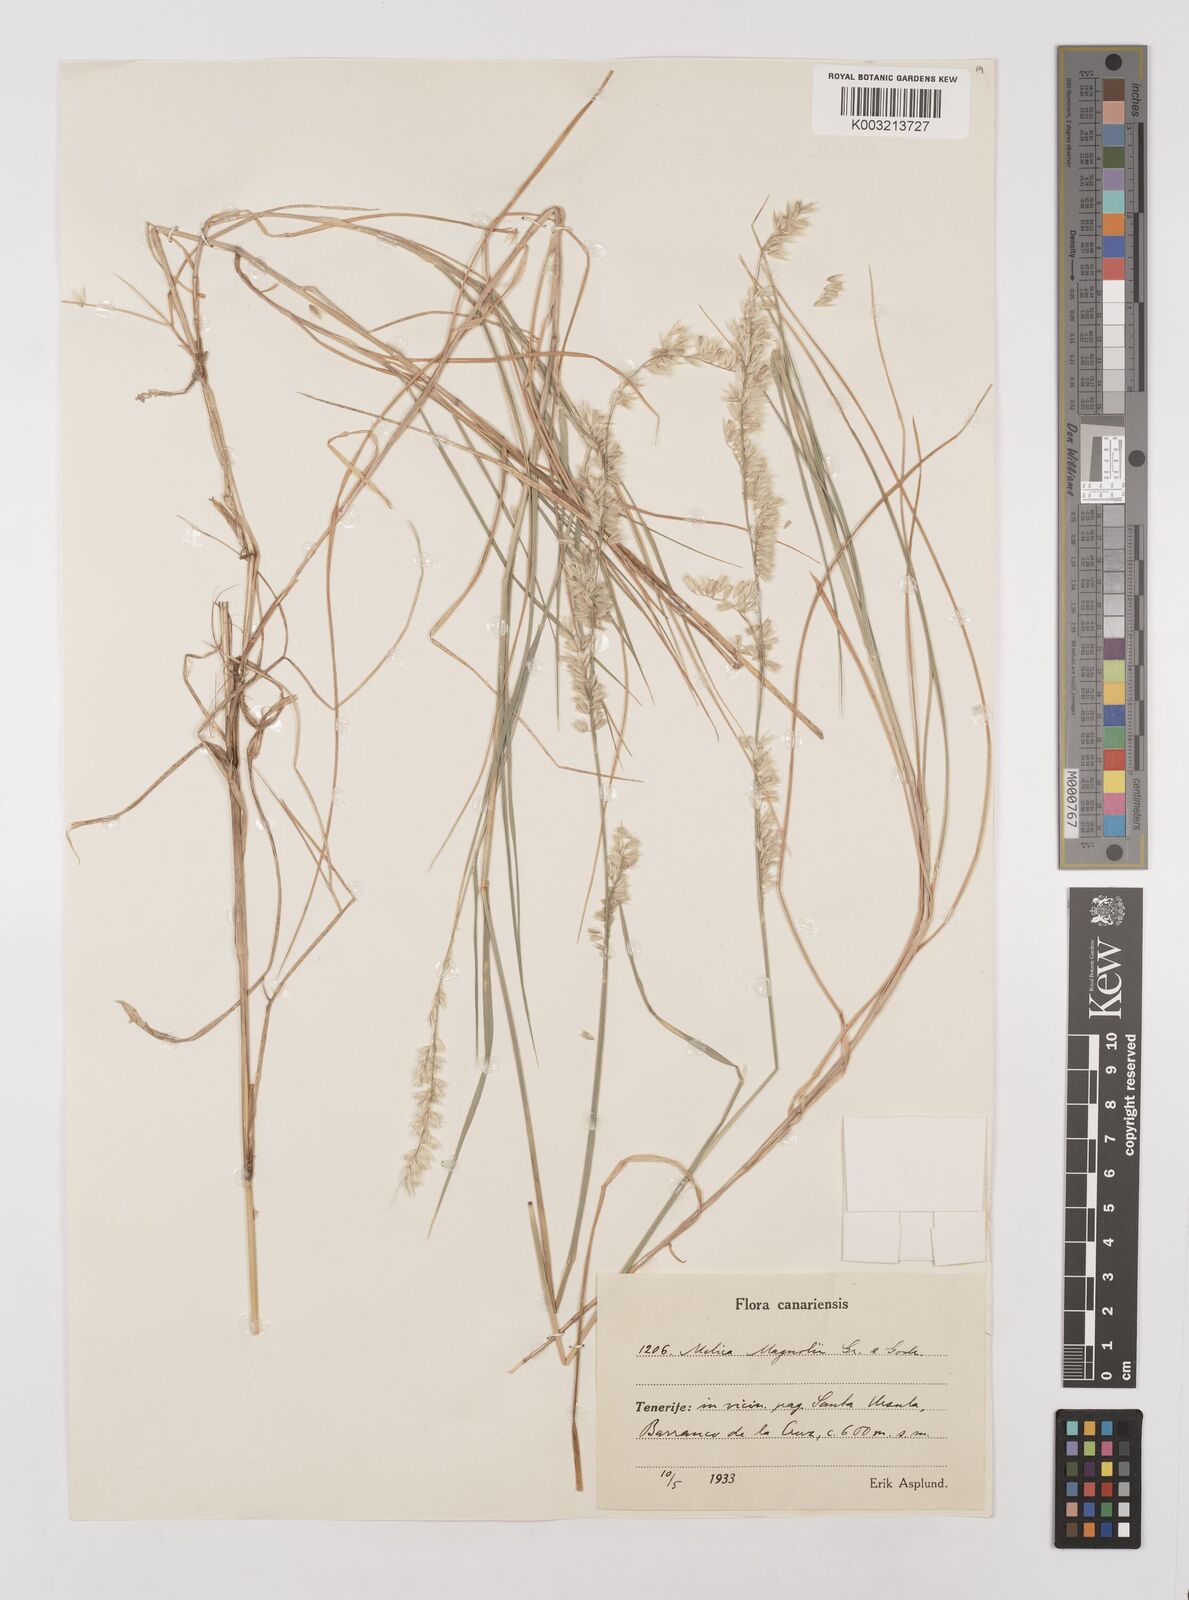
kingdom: Plantae
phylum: Tracheophyta
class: Liliopsida
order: Poales
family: Poaceae
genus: Melica
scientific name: Melica canariensis
